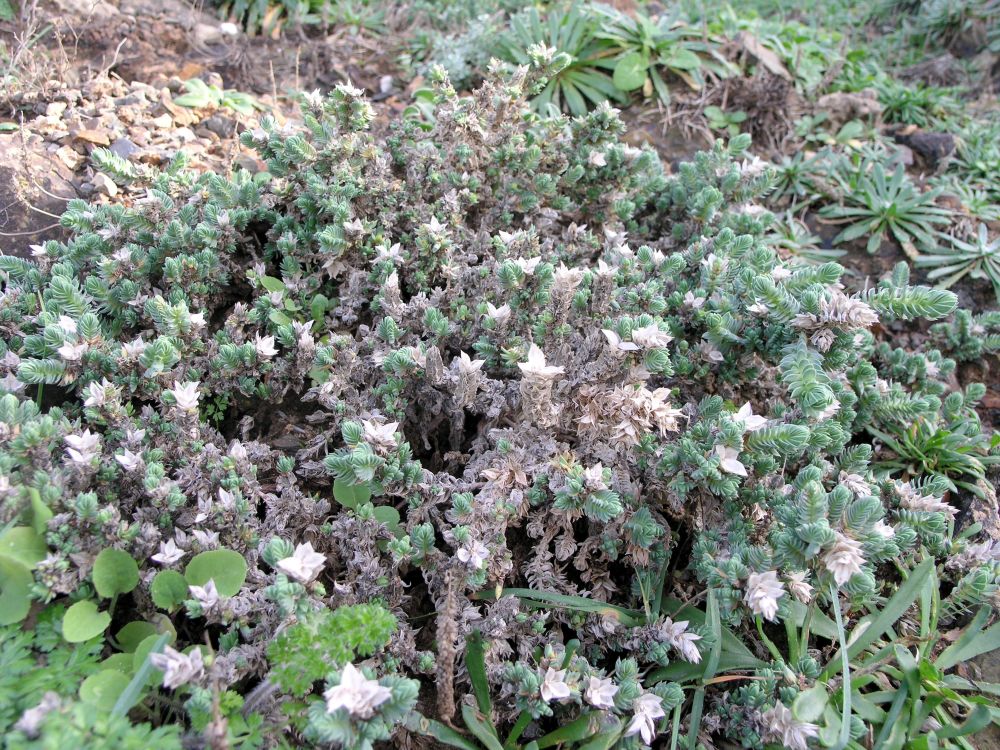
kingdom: Plantae
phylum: Tracheophyta
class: Magnoliopsida
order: Gentianales
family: Rubiaceae
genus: Crucianella
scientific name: Crucianella maritima
